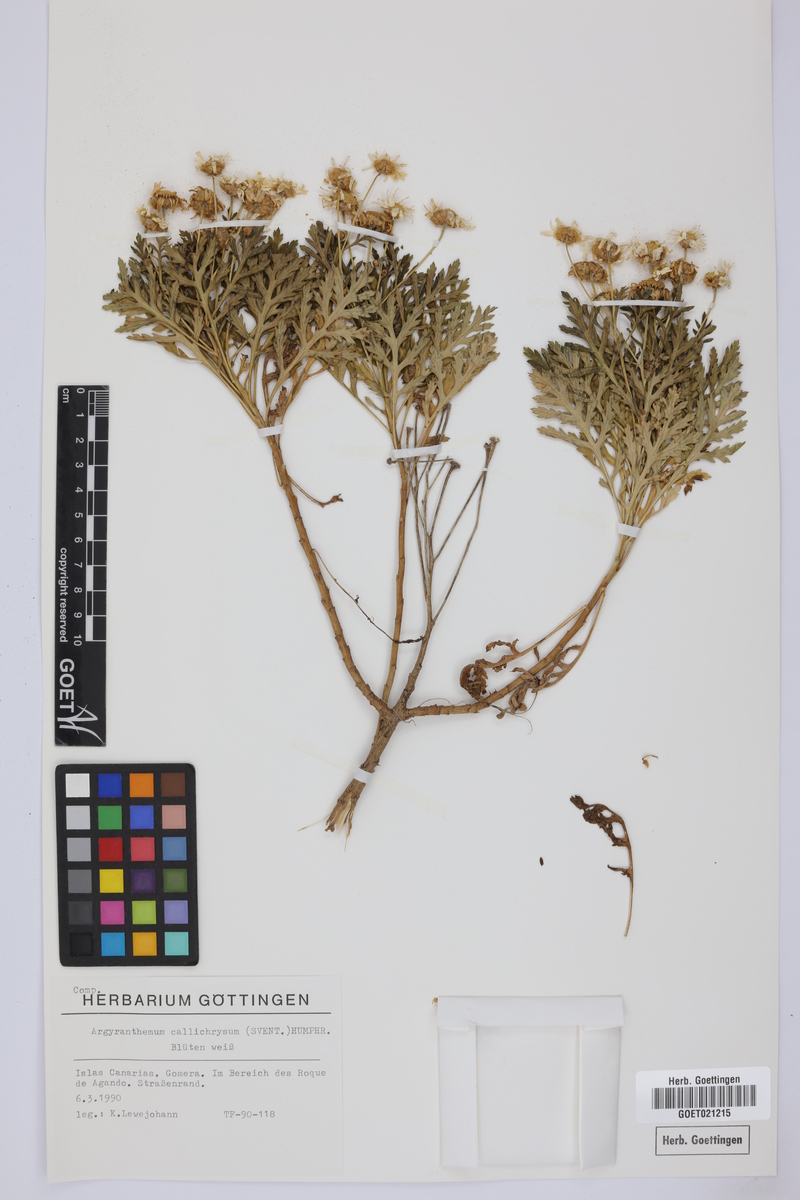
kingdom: Plantae
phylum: Tracheophyta
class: Magnoliopsida
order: Asterales
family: Asteraceae
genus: Argyranthemum
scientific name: Argyranthemum callichrysum
